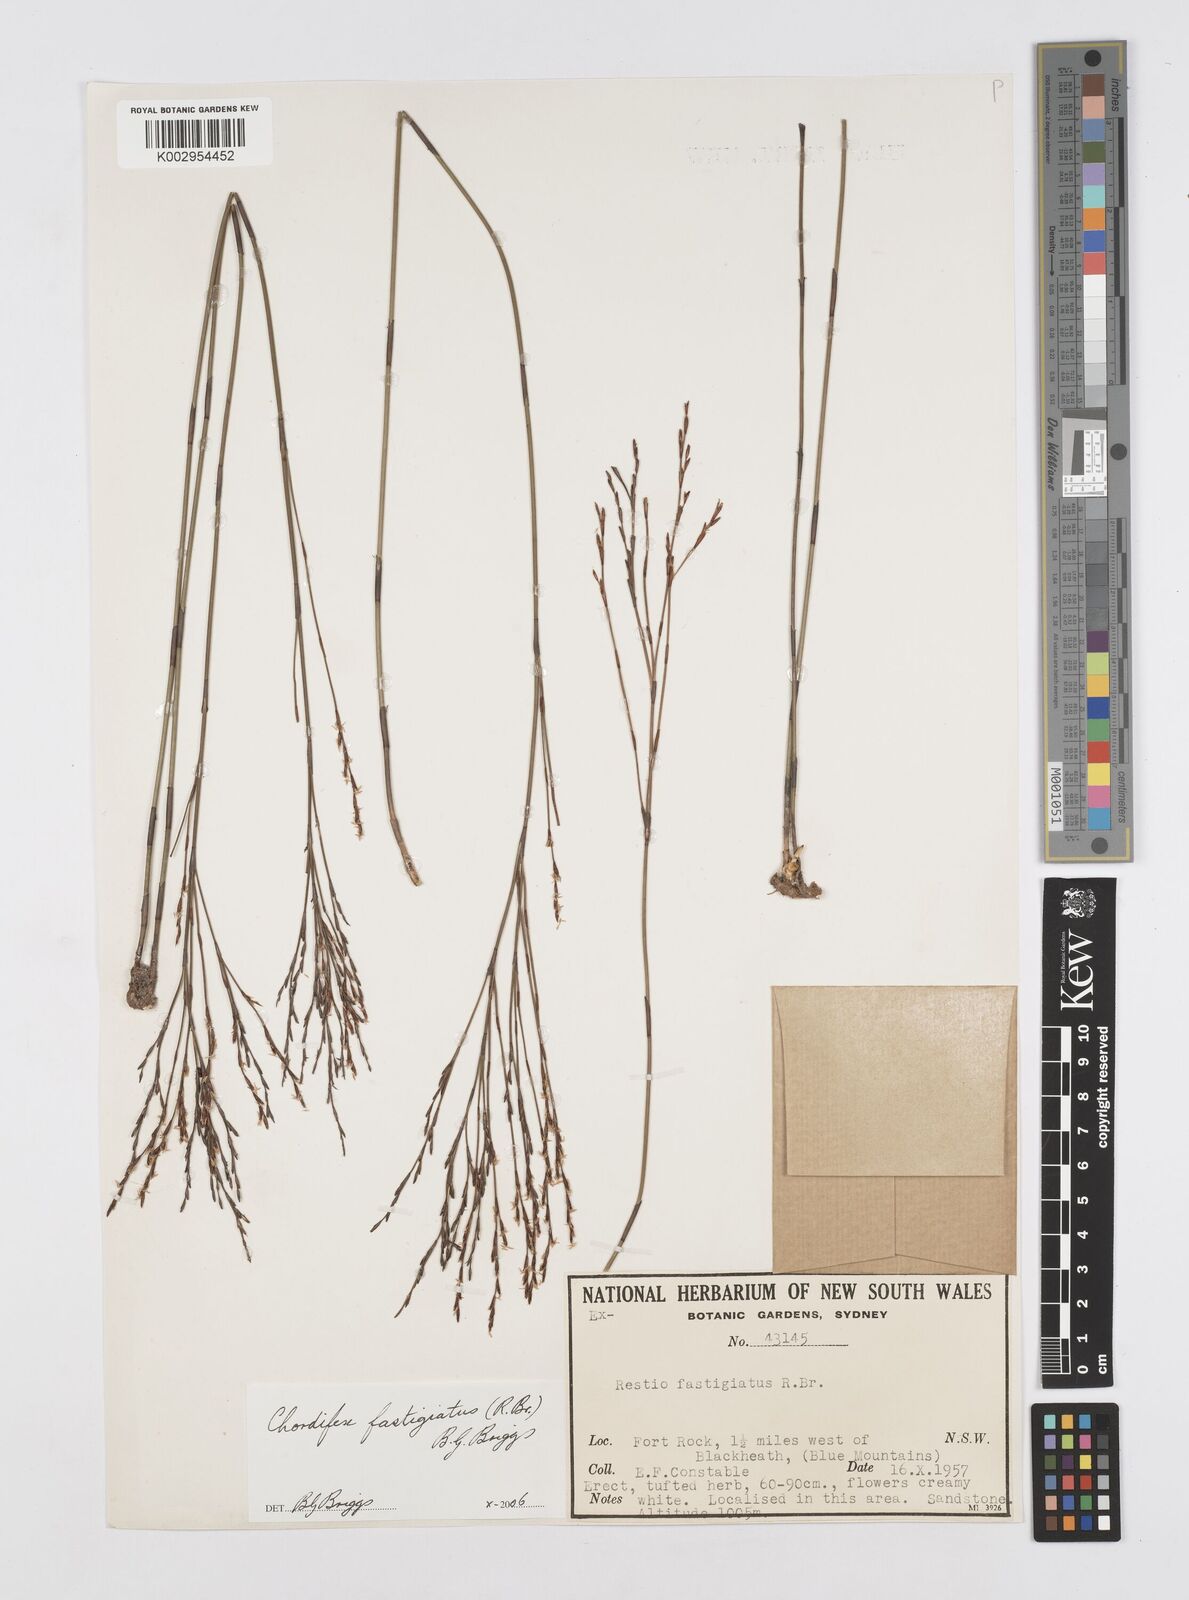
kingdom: Plantae
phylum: Tracheophyta
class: Liliopsida
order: Poales
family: Restionaceae
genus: Chordifex
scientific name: Chordifex fastigiatus
